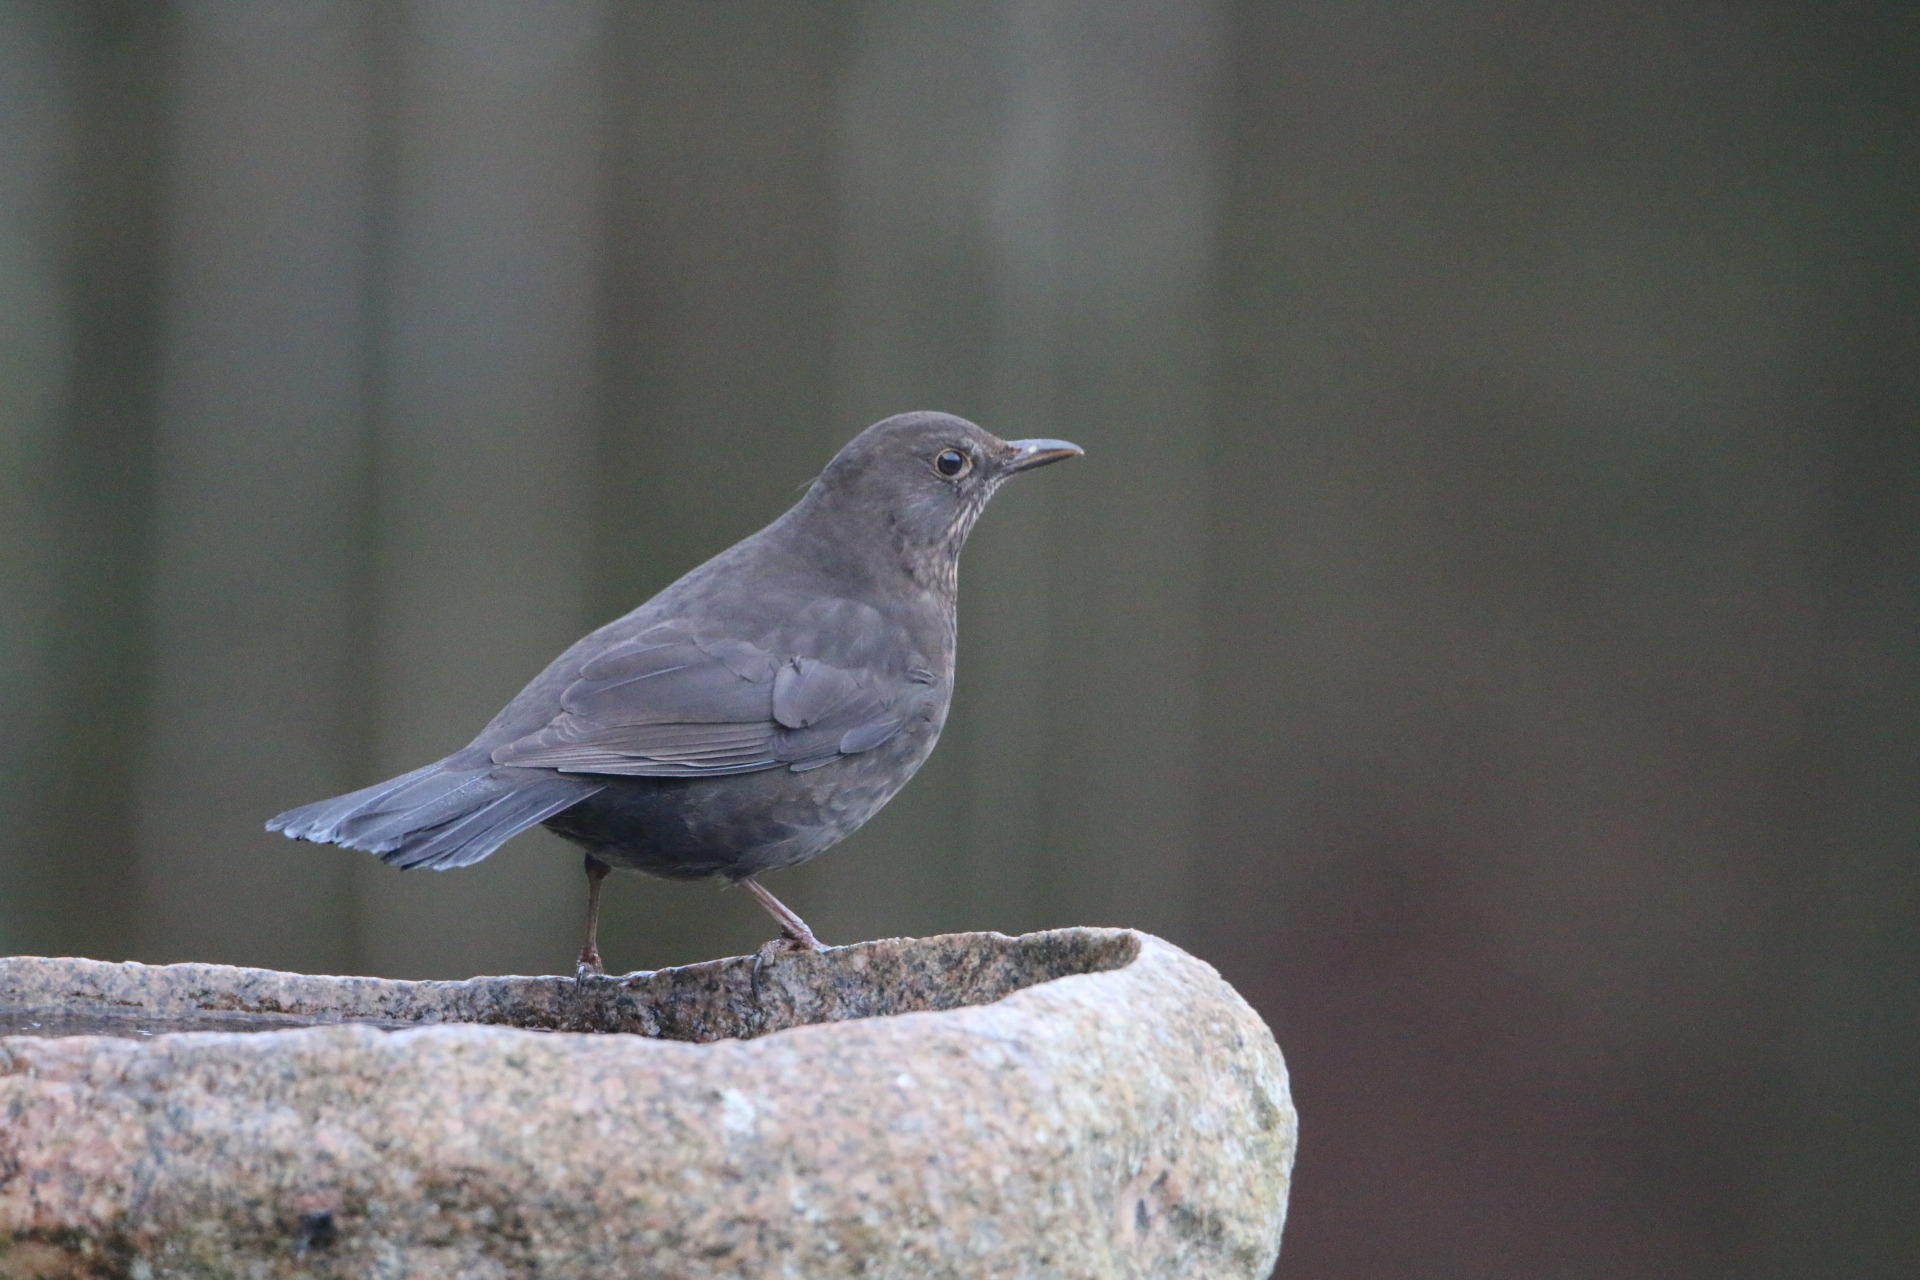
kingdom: Animalia
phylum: Chordata
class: Aves
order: Passeriformes
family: Turdidae
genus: Turdus
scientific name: Turdus merula
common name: Solsort
